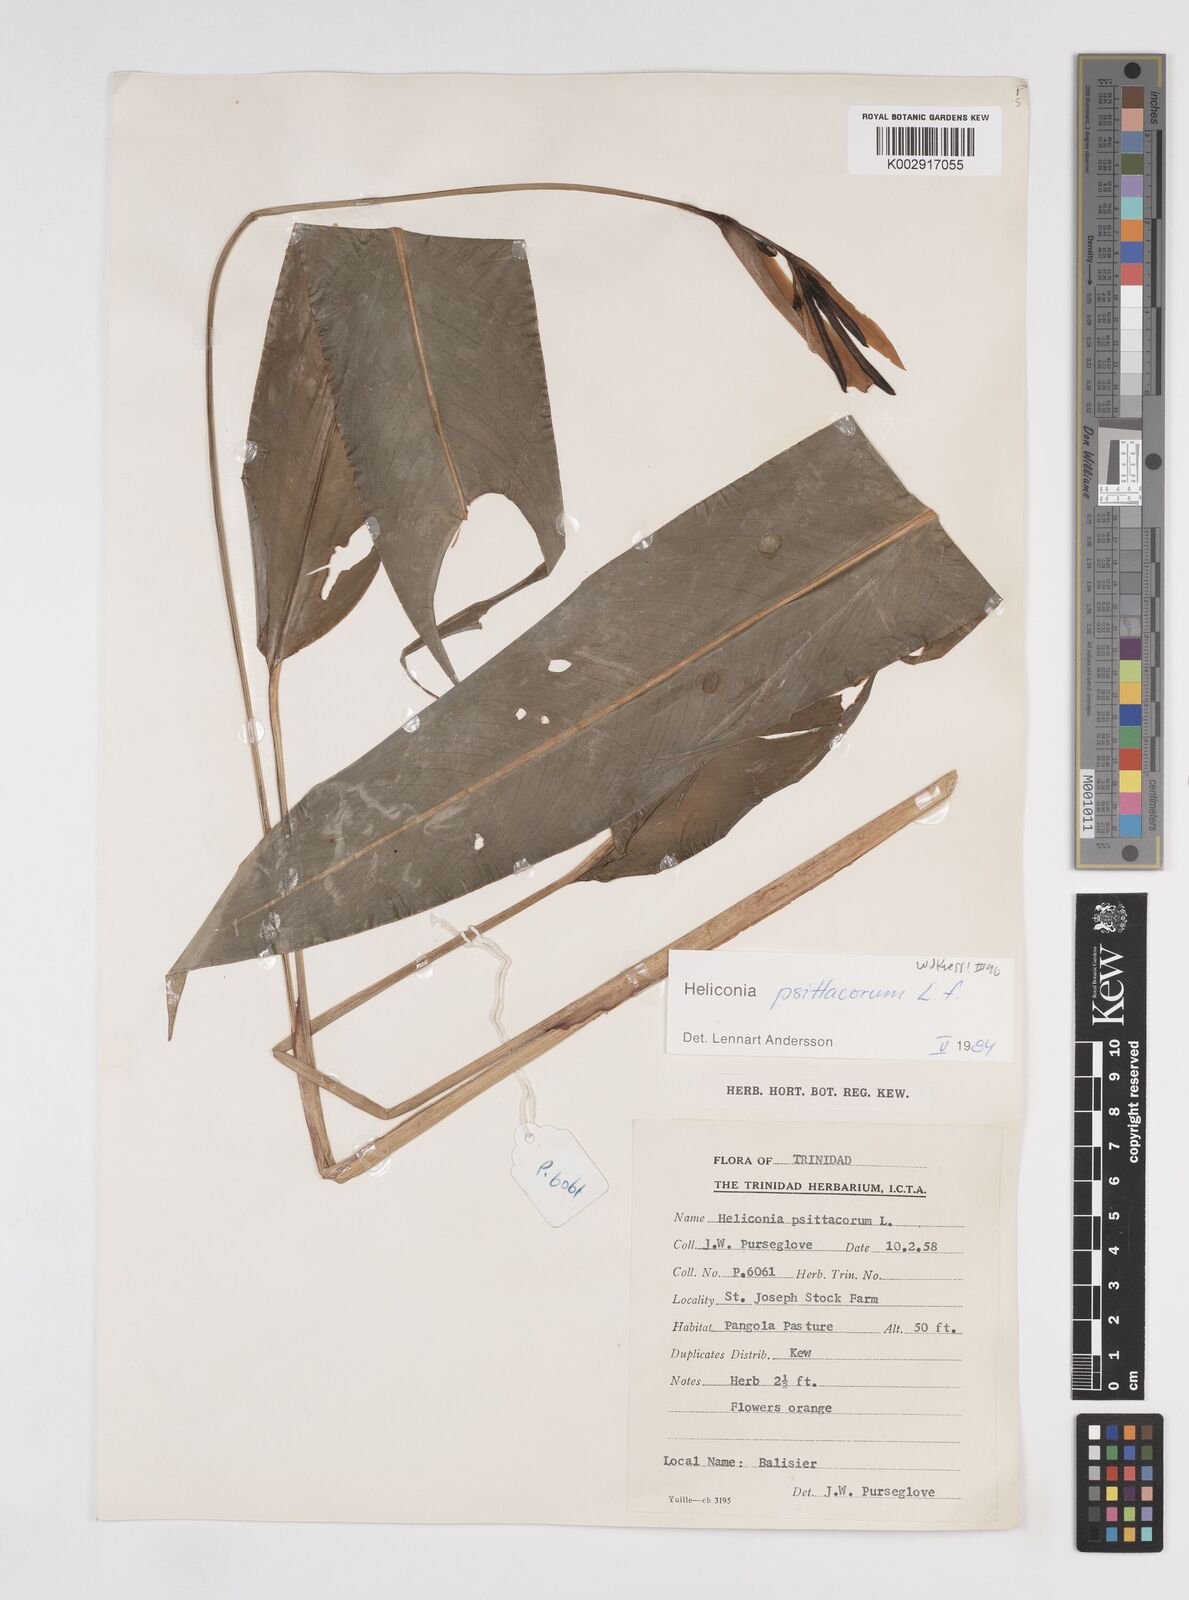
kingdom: Plantae
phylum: Tracheophyta
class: Liliopsida
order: Zingiberales
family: Heliconiaceae
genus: Heliconia
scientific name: Heliconia psittacorum
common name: Parrot's-flower
